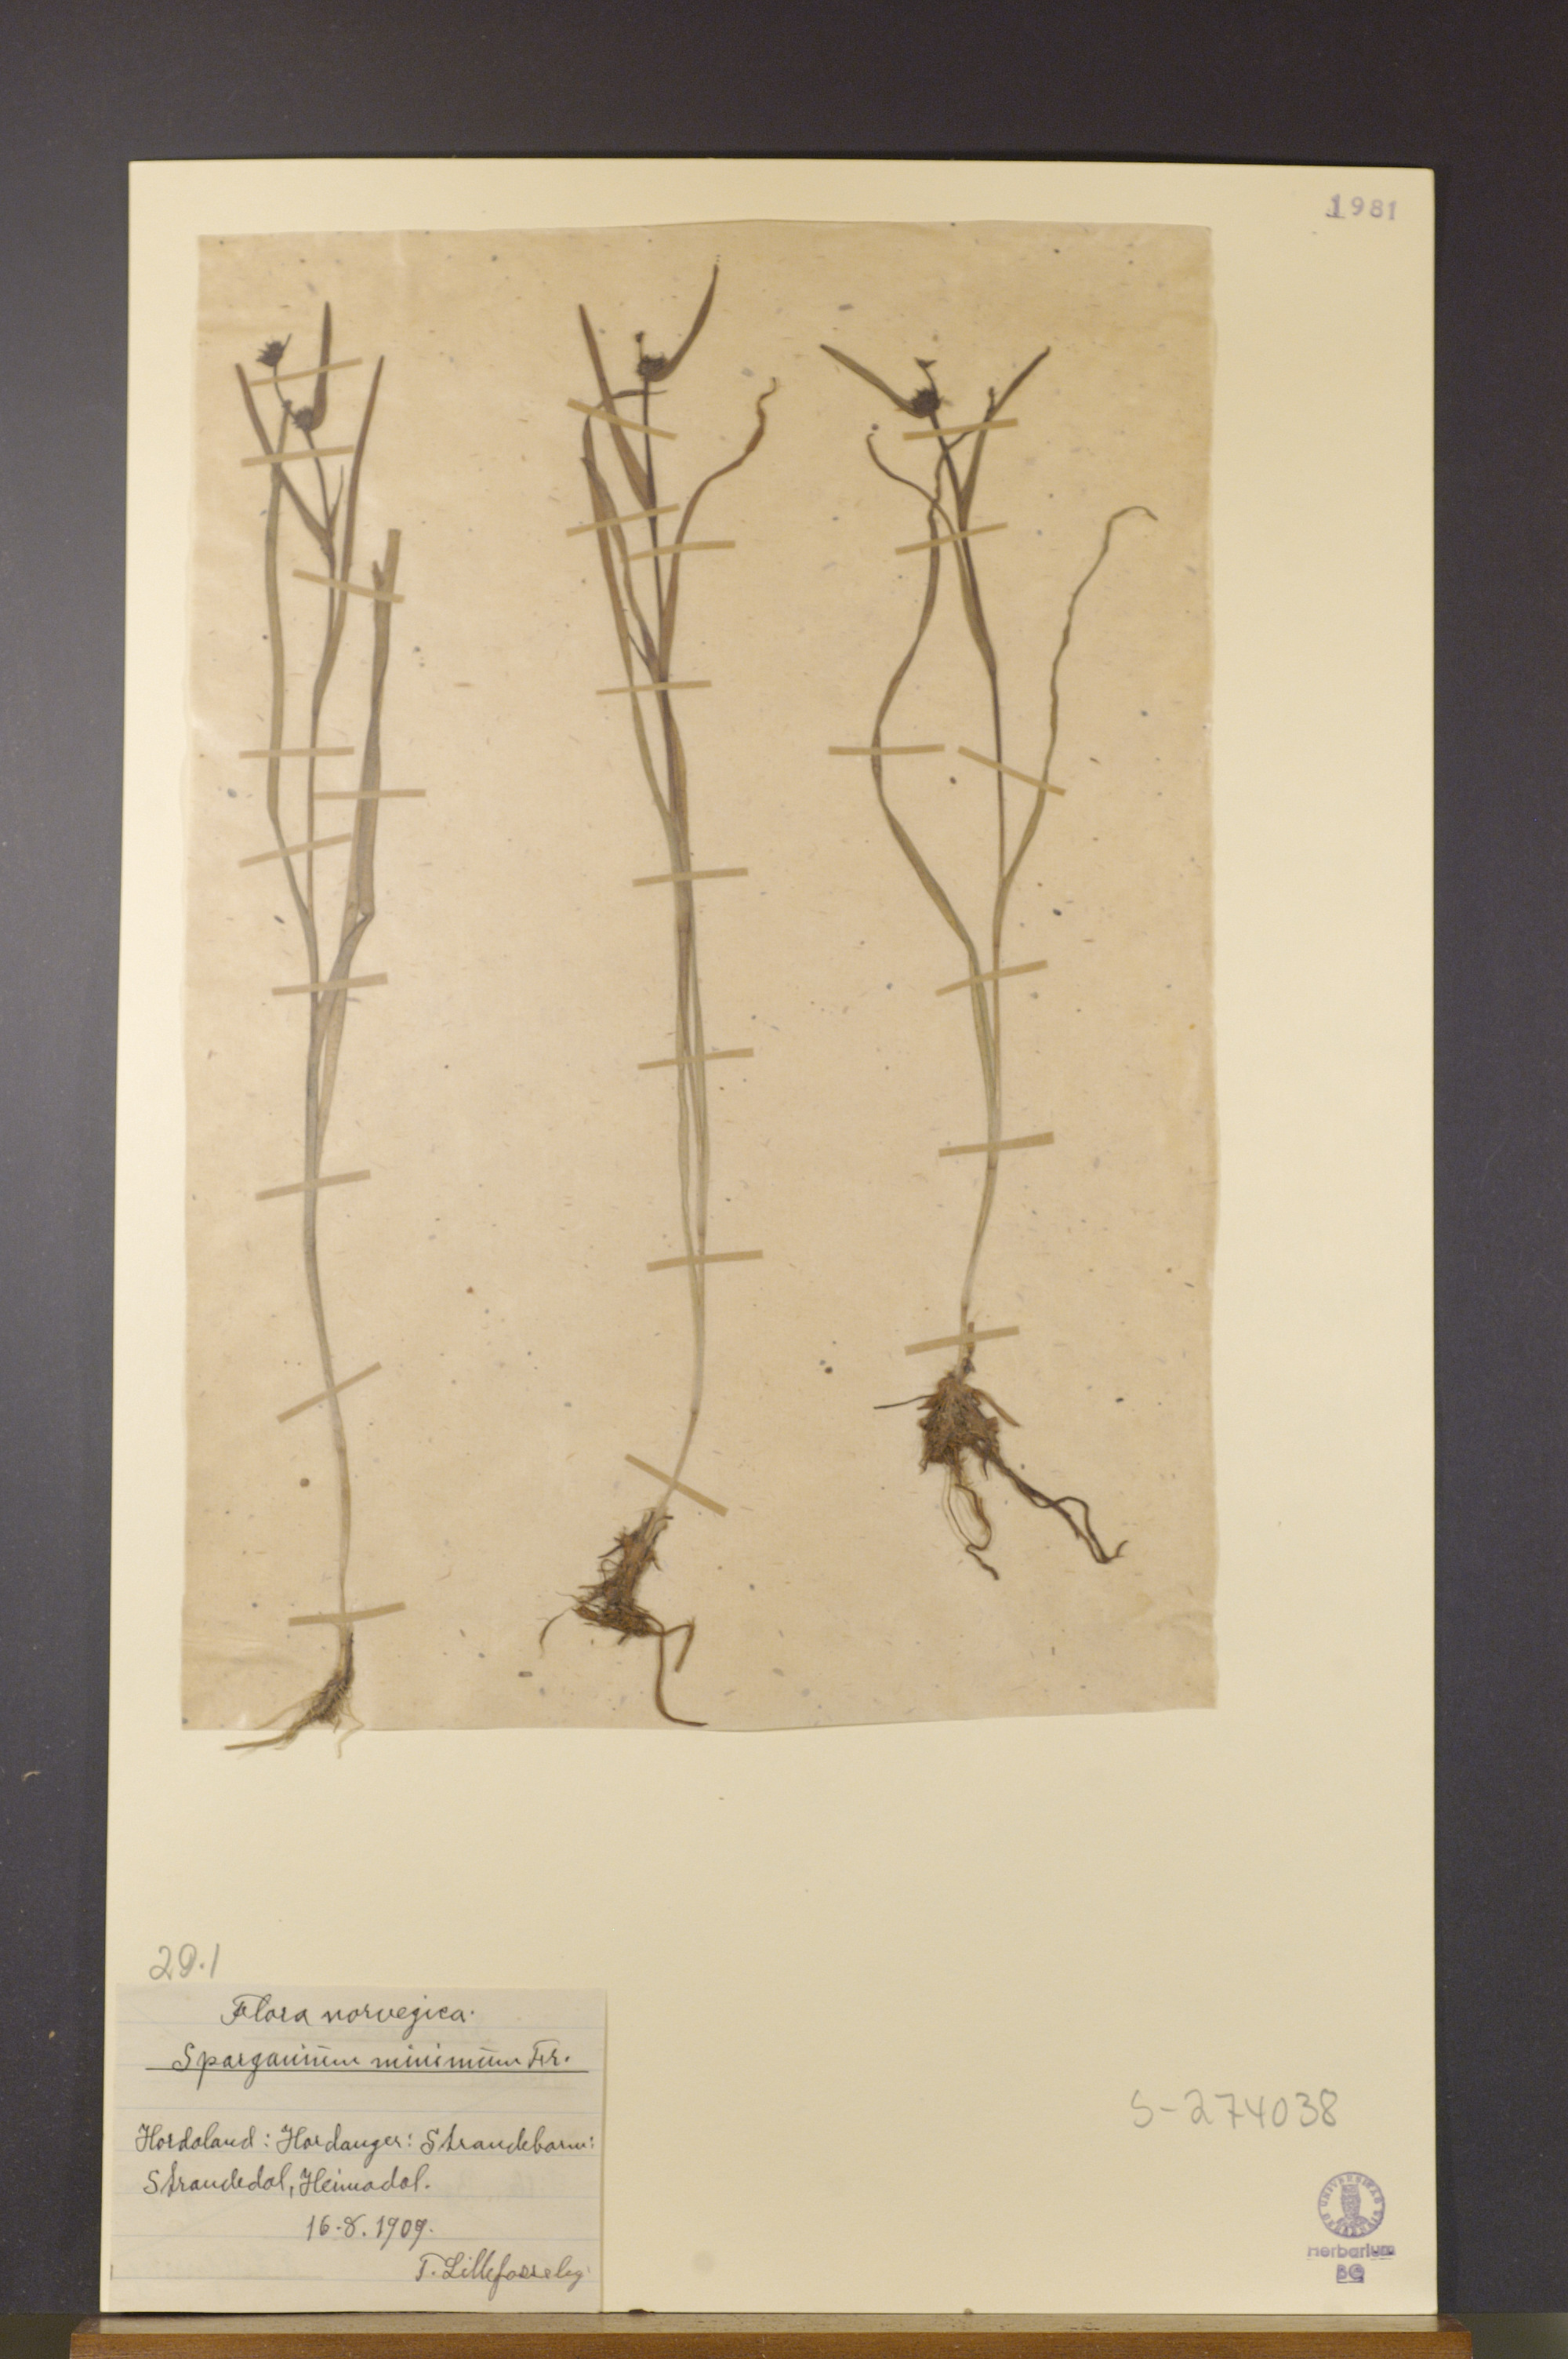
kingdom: Plantae
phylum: Tracheophyta
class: Liliopsida
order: Poales
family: Typhaceae
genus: Sparganium
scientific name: Sparganium natans
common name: Least bur-reed
